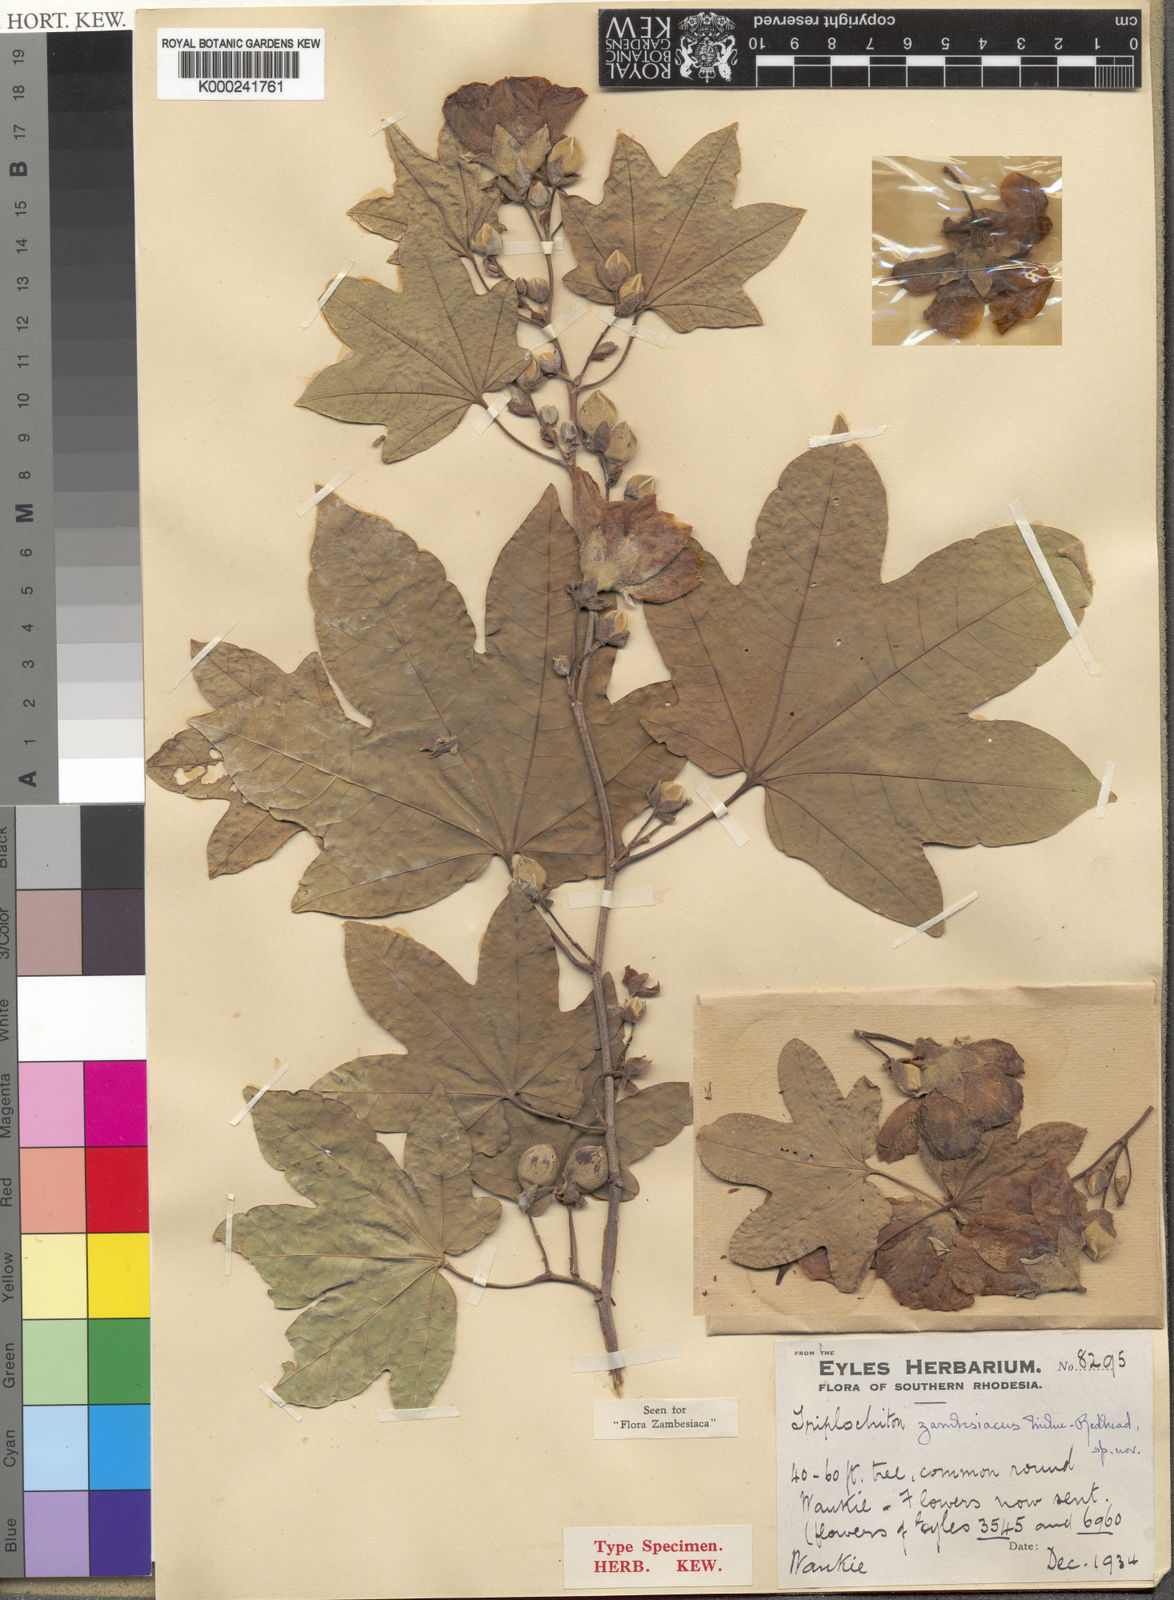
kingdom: Plantae
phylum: Tracheophyta
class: Magnoliopsida
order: Malvales
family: Malvaceae
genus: Triplochiton
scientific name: Triplochiton zambesiacus
